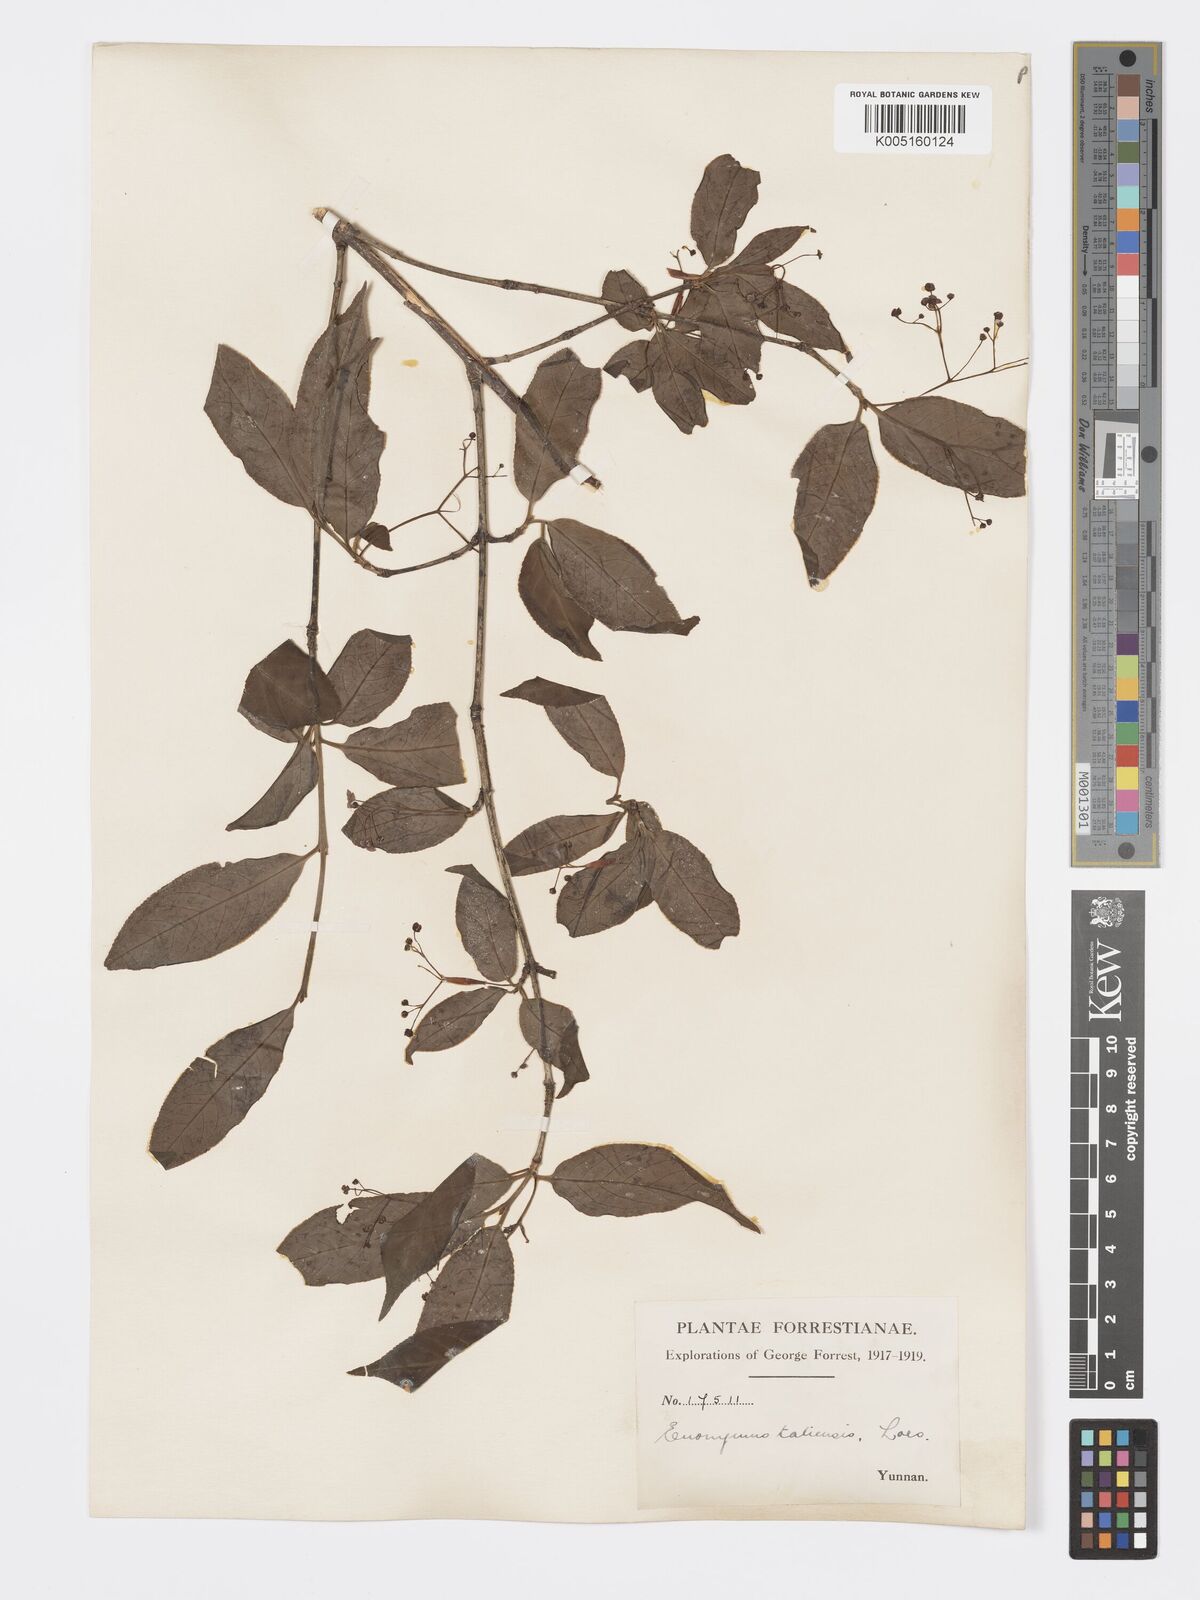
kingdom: Plantae
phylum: Tracheophyta
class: Magnoliopsida
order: Celastrales
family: Celastraceae
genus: Euonymus
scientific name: Euonymus amygdalifolius
